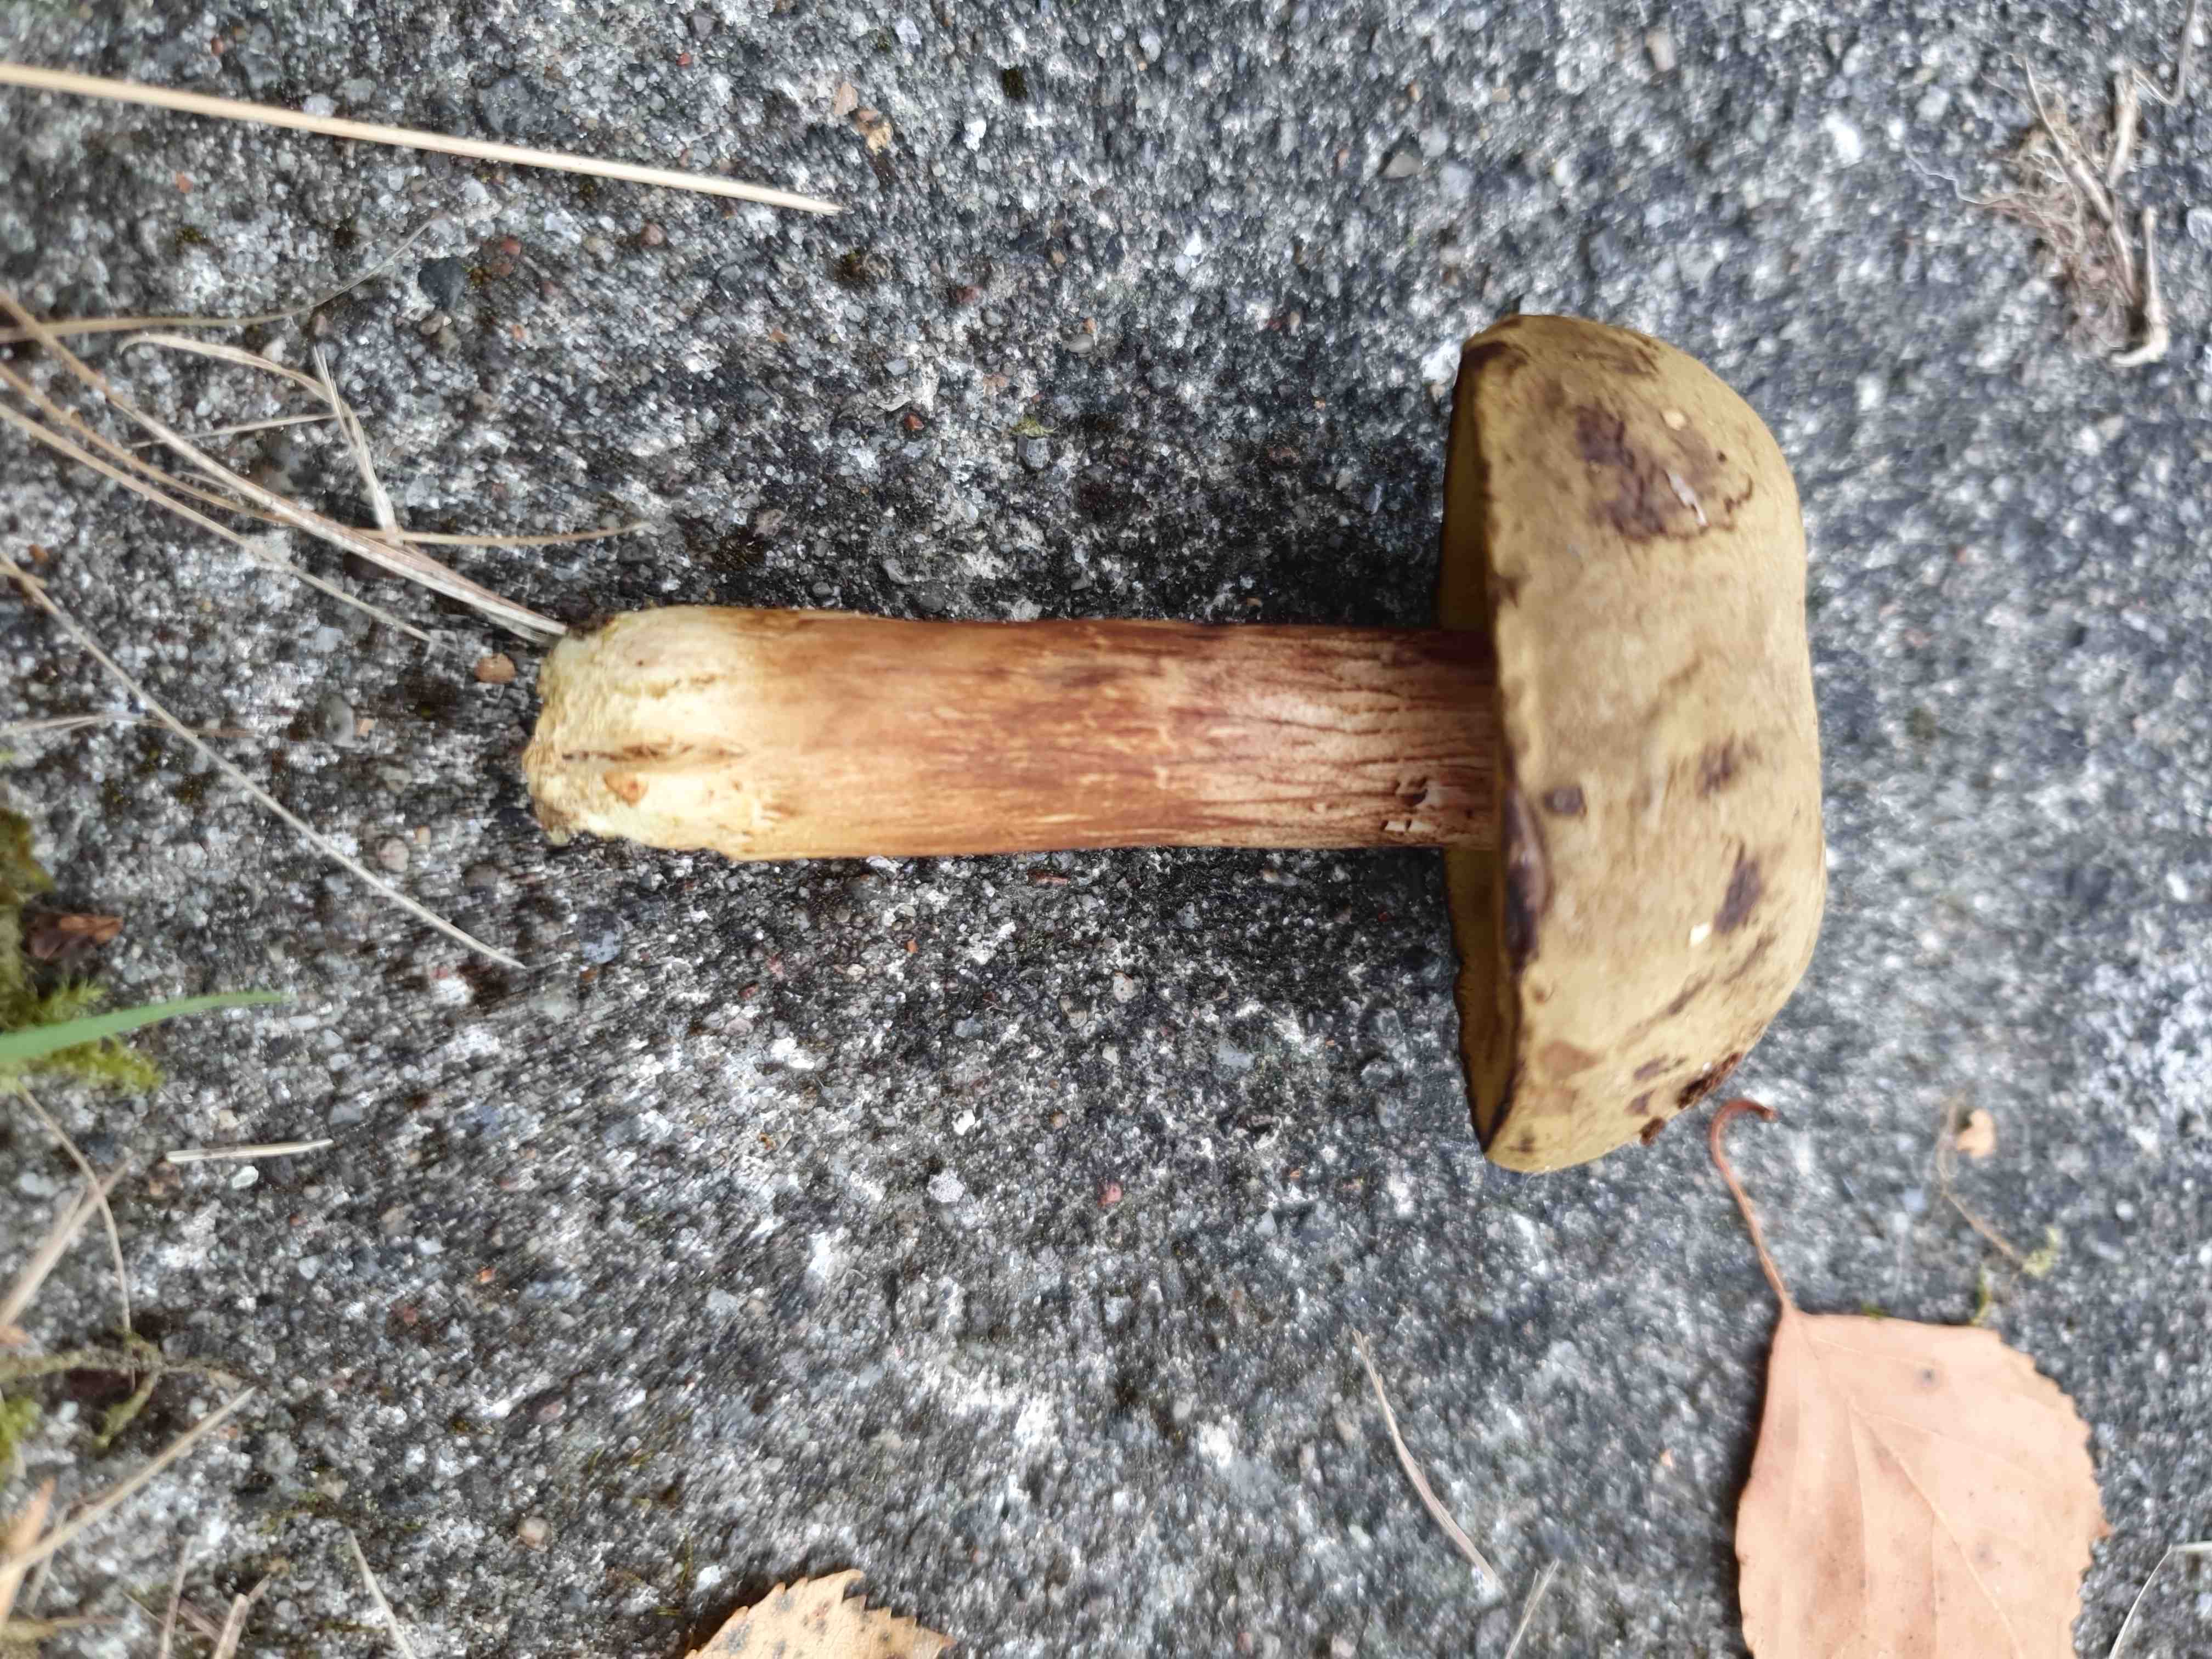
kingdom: Fungi
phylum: Basidiomycota
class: Agaricomycetes
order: Boletales
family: Boletaceae
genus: Xerocomus
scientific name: Xerocomus
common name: filtrørhat
